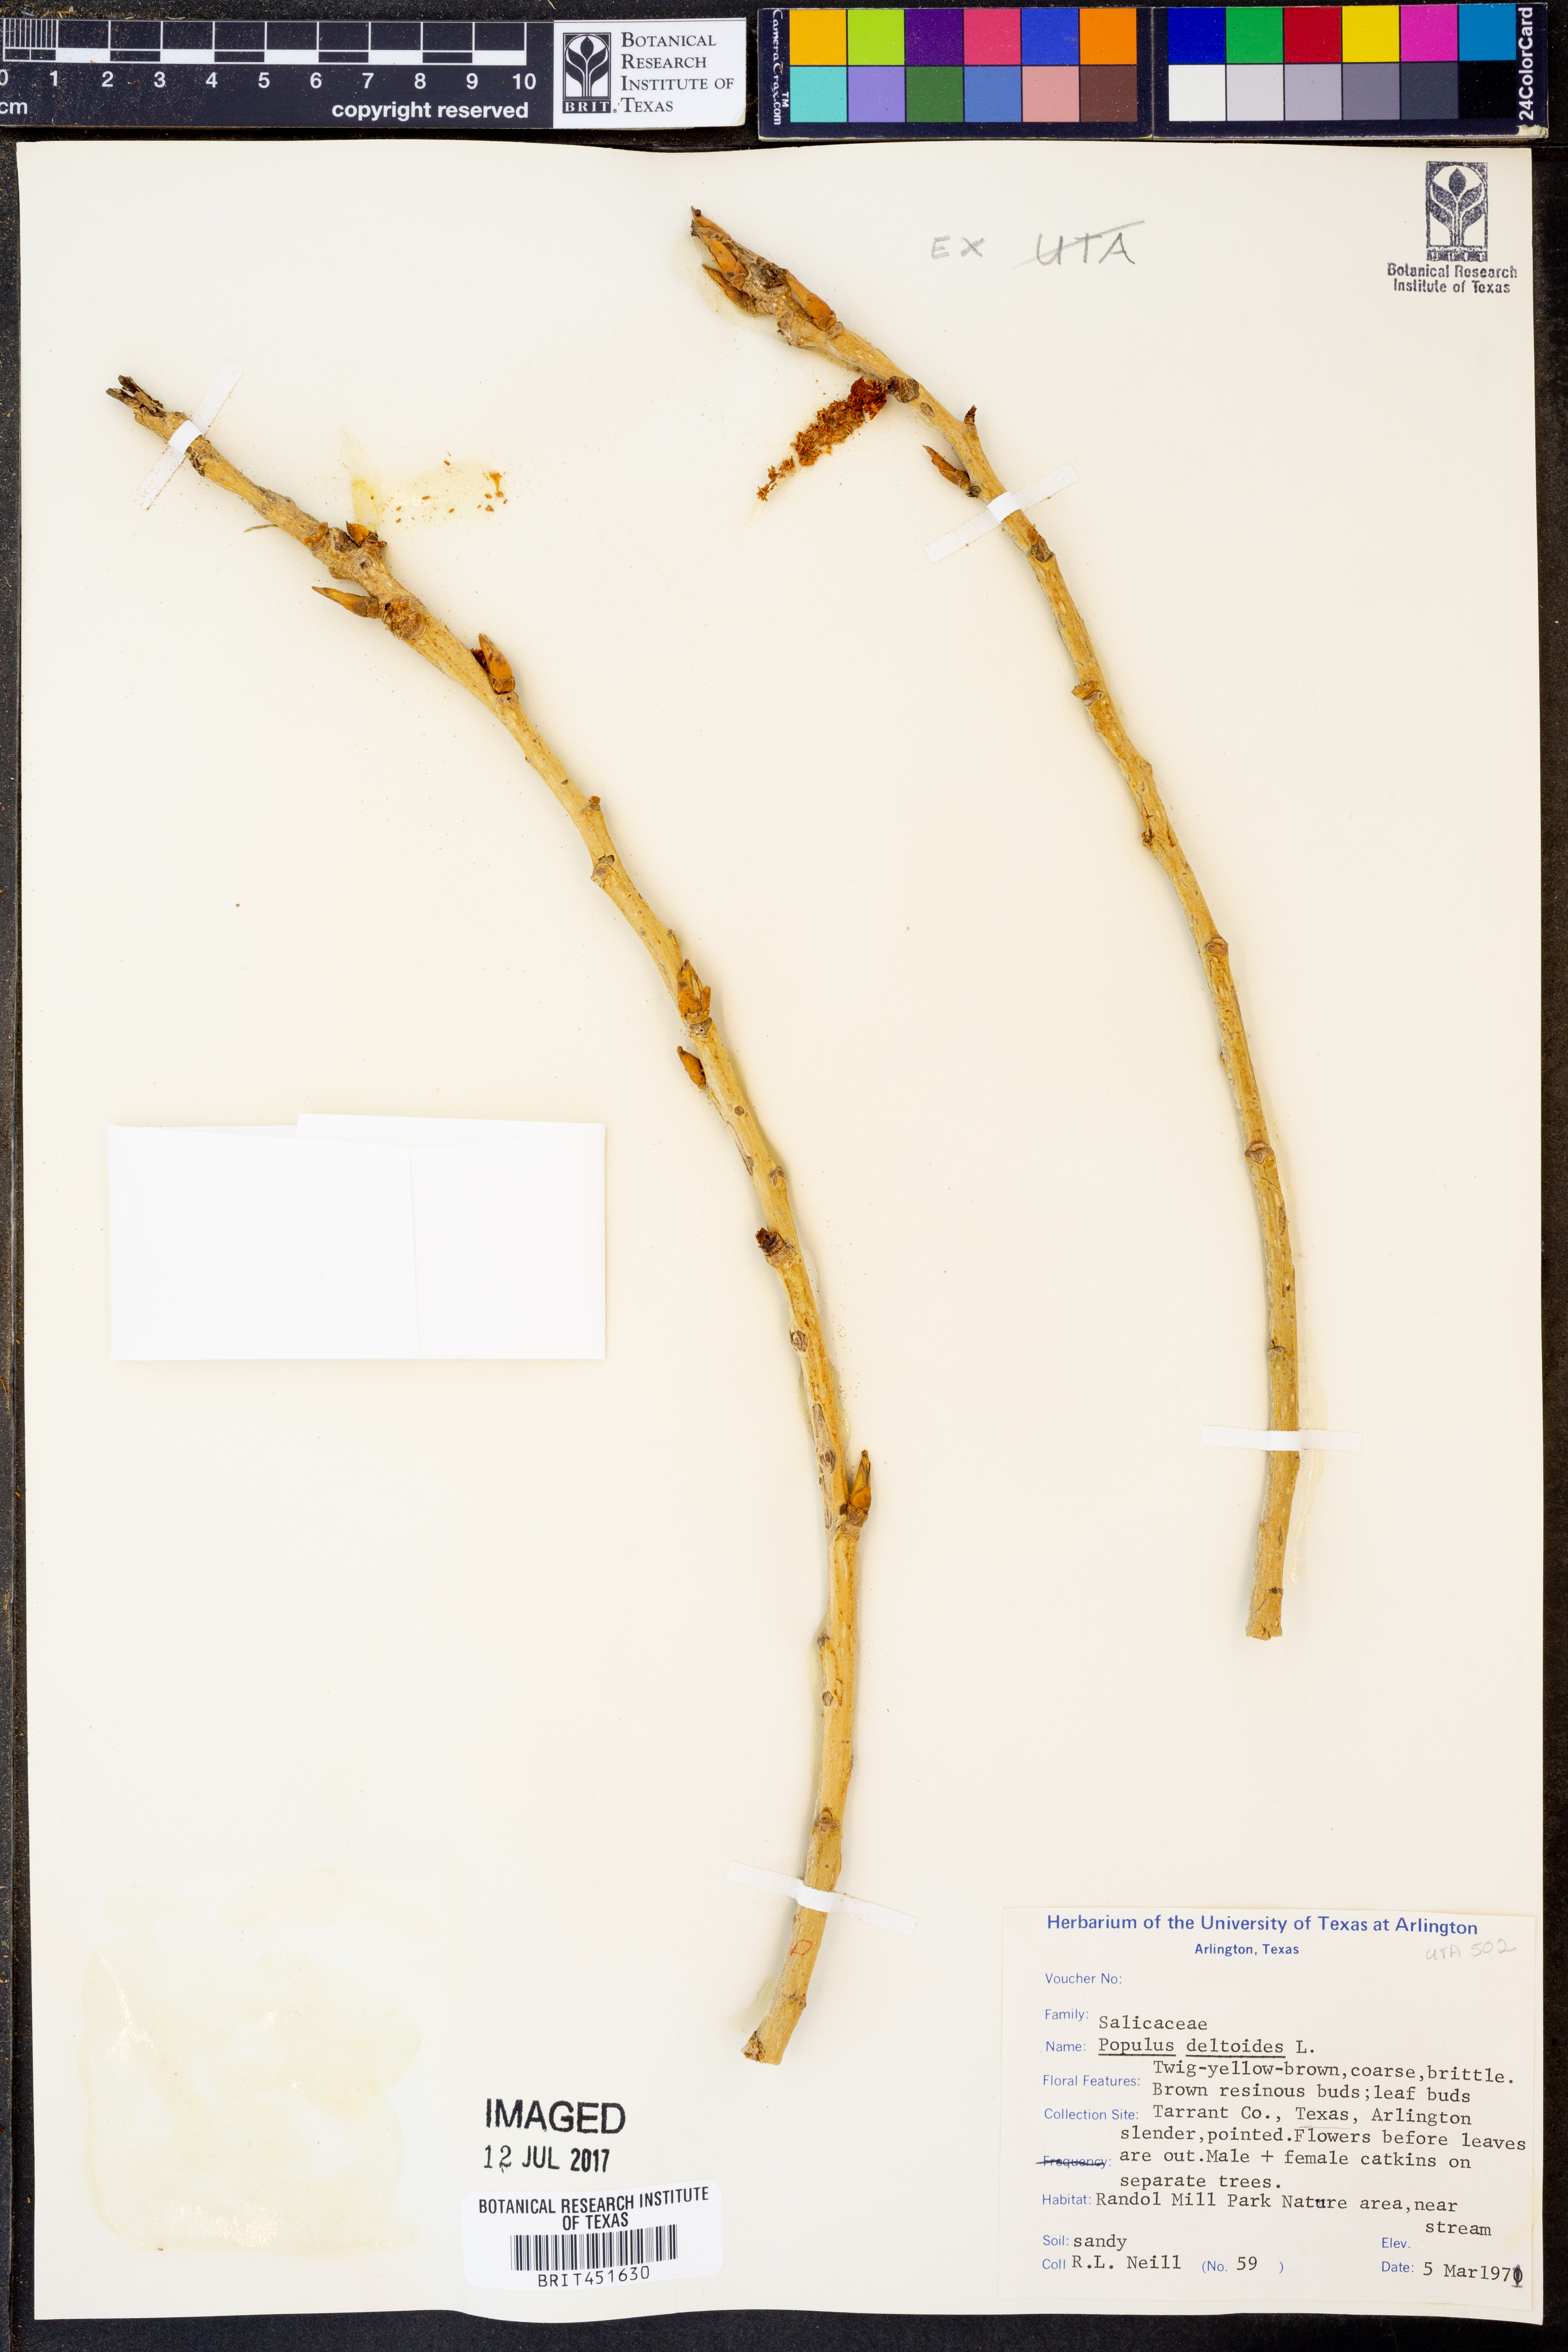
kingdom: Plantae
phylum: Tracheophyta
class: Magnoliopsida
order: Malpighiales
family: Salicaceae
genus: Populus
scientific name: Populus deltoides
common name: Eastern cottonwood
